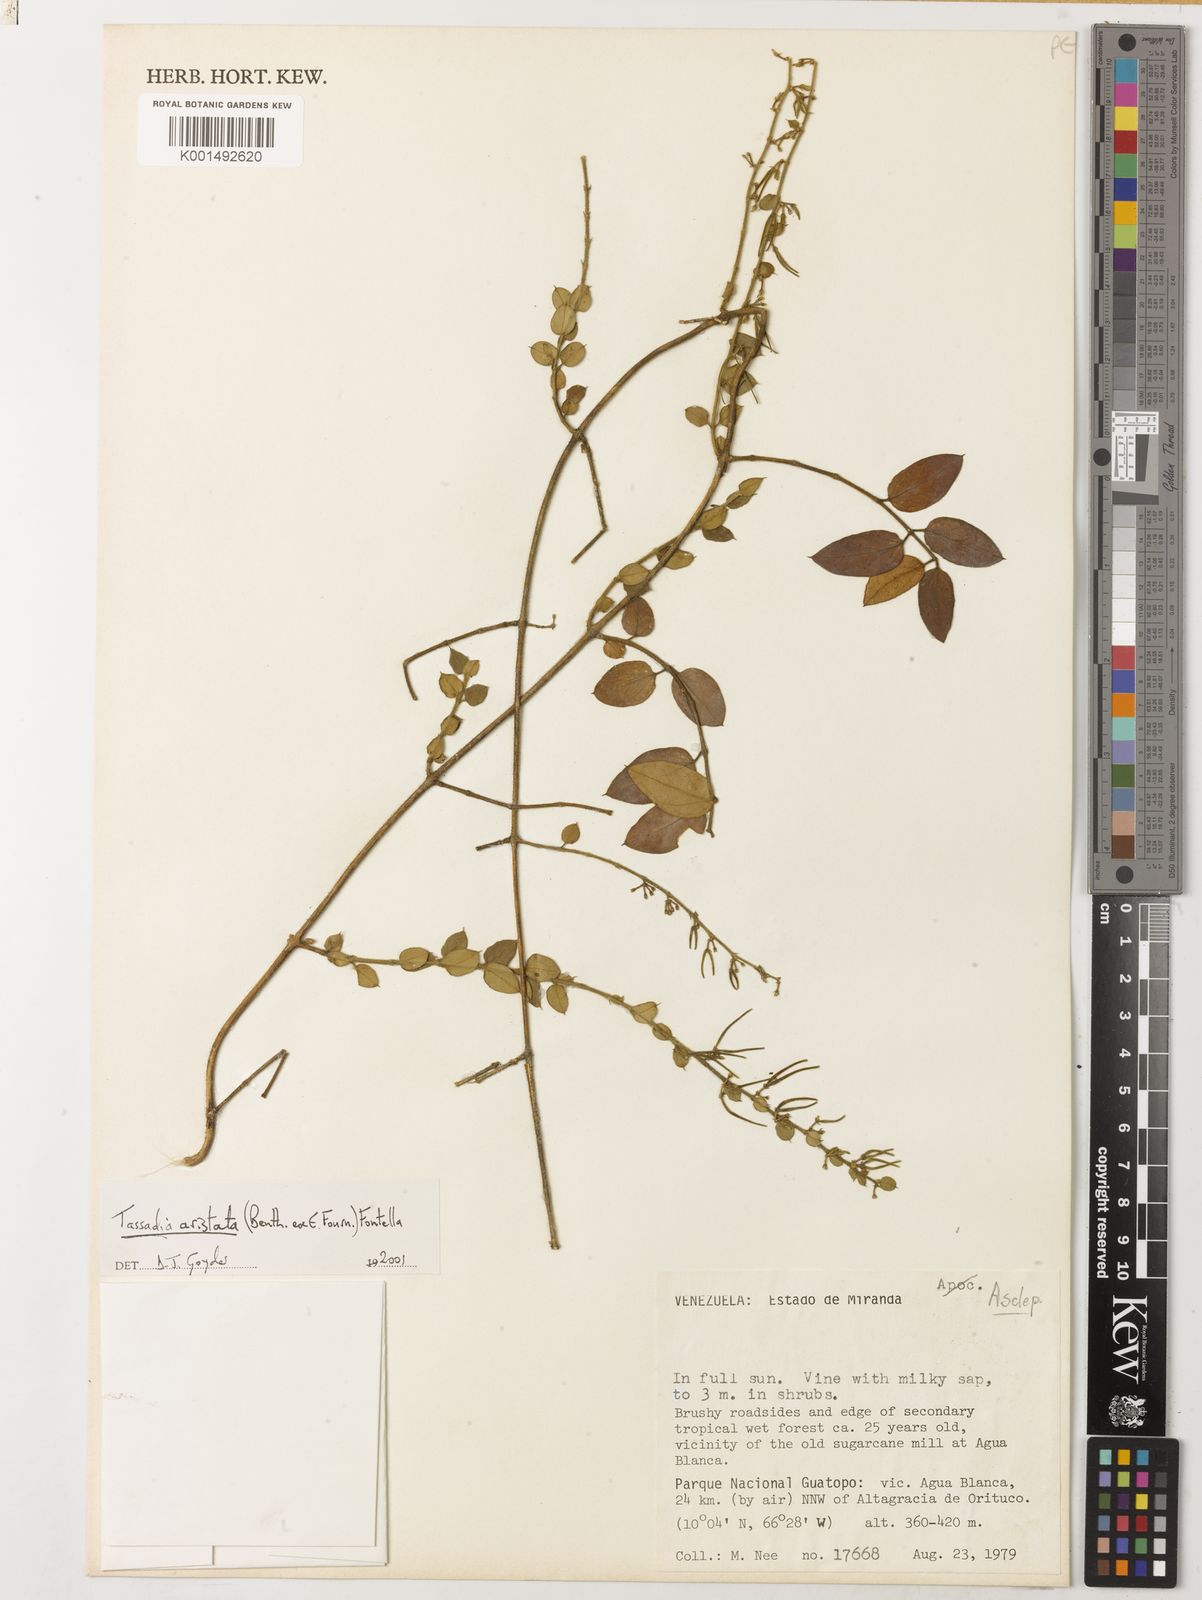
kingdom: Plantae
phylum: Tracheophyta
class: Magnoliopsida
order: Gentianales
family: Apocynaceae
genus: Tassadia
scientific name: Tassadia aristata
